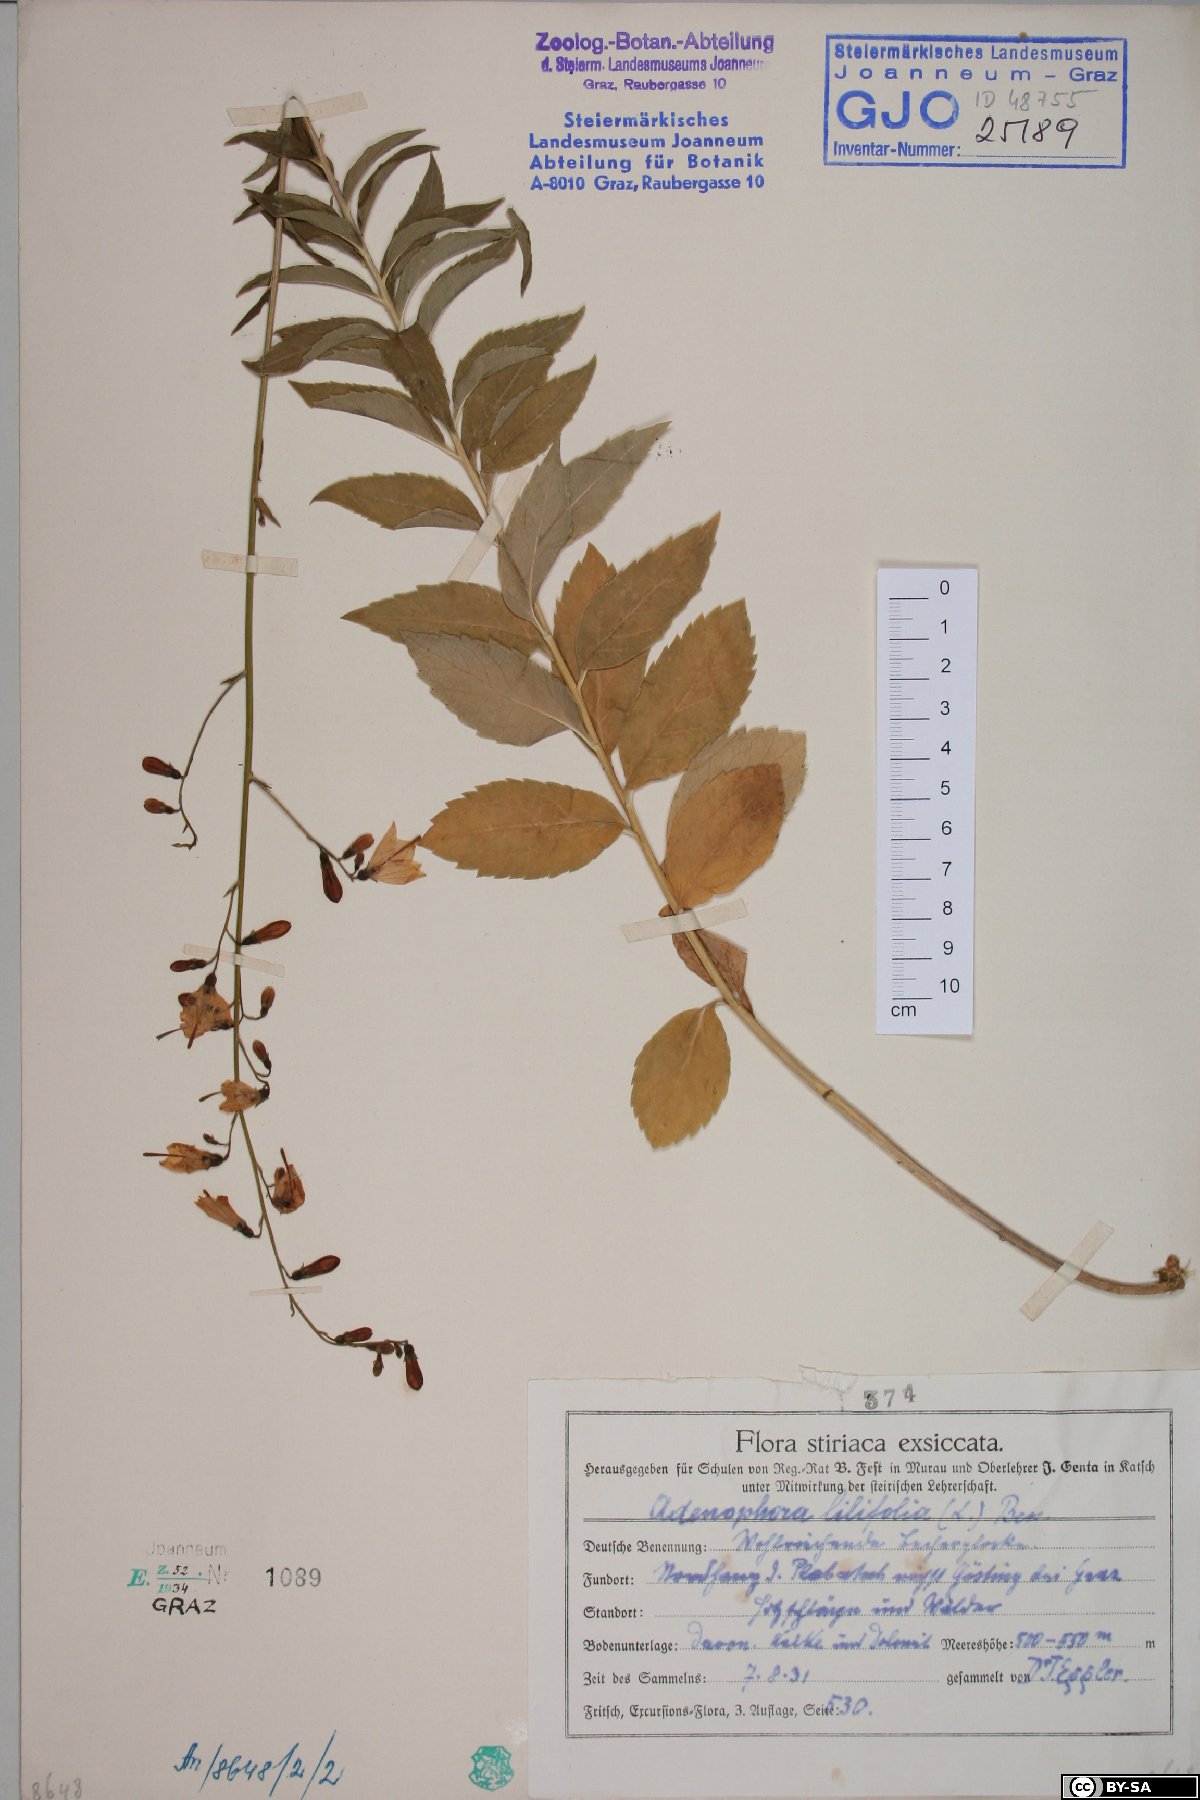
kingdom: Plantae
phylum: Tracheophyta
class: Magnoliopsida
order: Asterales
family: Campanulaceae
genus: Adenophora
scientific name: Adenophora liliifolia
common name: Lilyleaf ladybells
